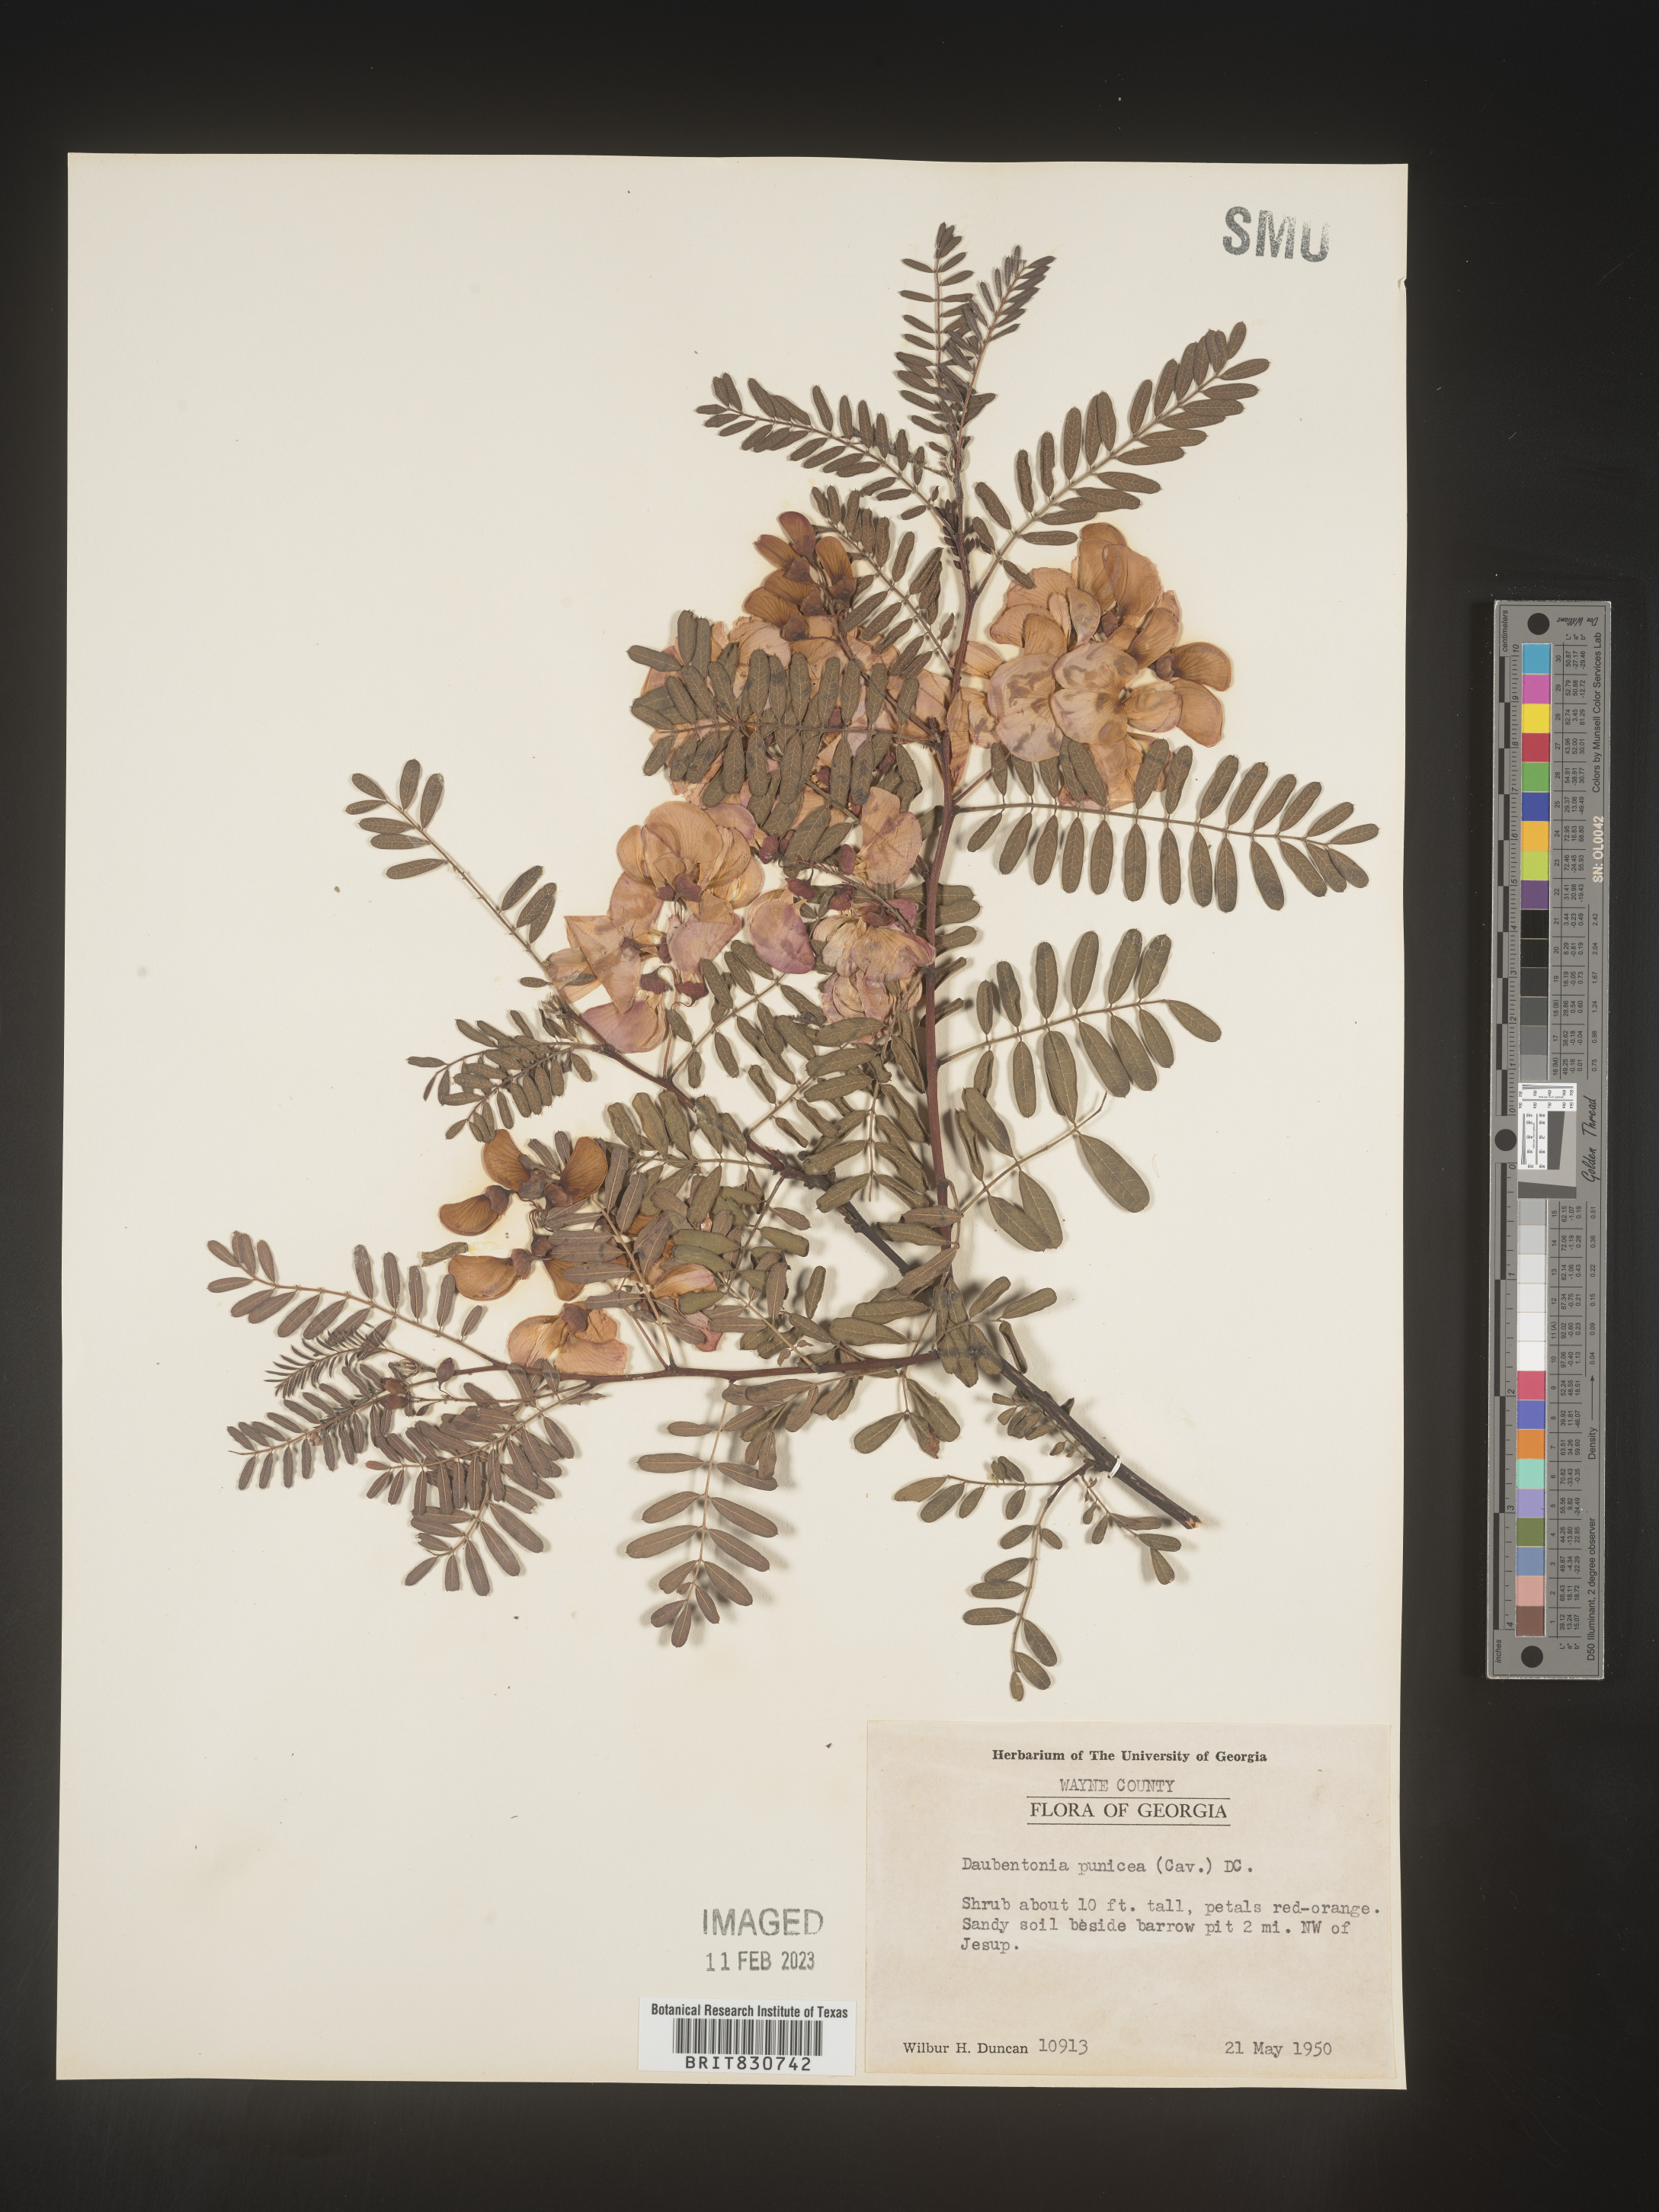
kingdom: Plantae
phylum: Tracheophyta
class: Magnoliopsida
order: Fabales
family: Fabaceae
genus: Sesbania
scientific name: Sesbania punicea
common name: Rattlebox
